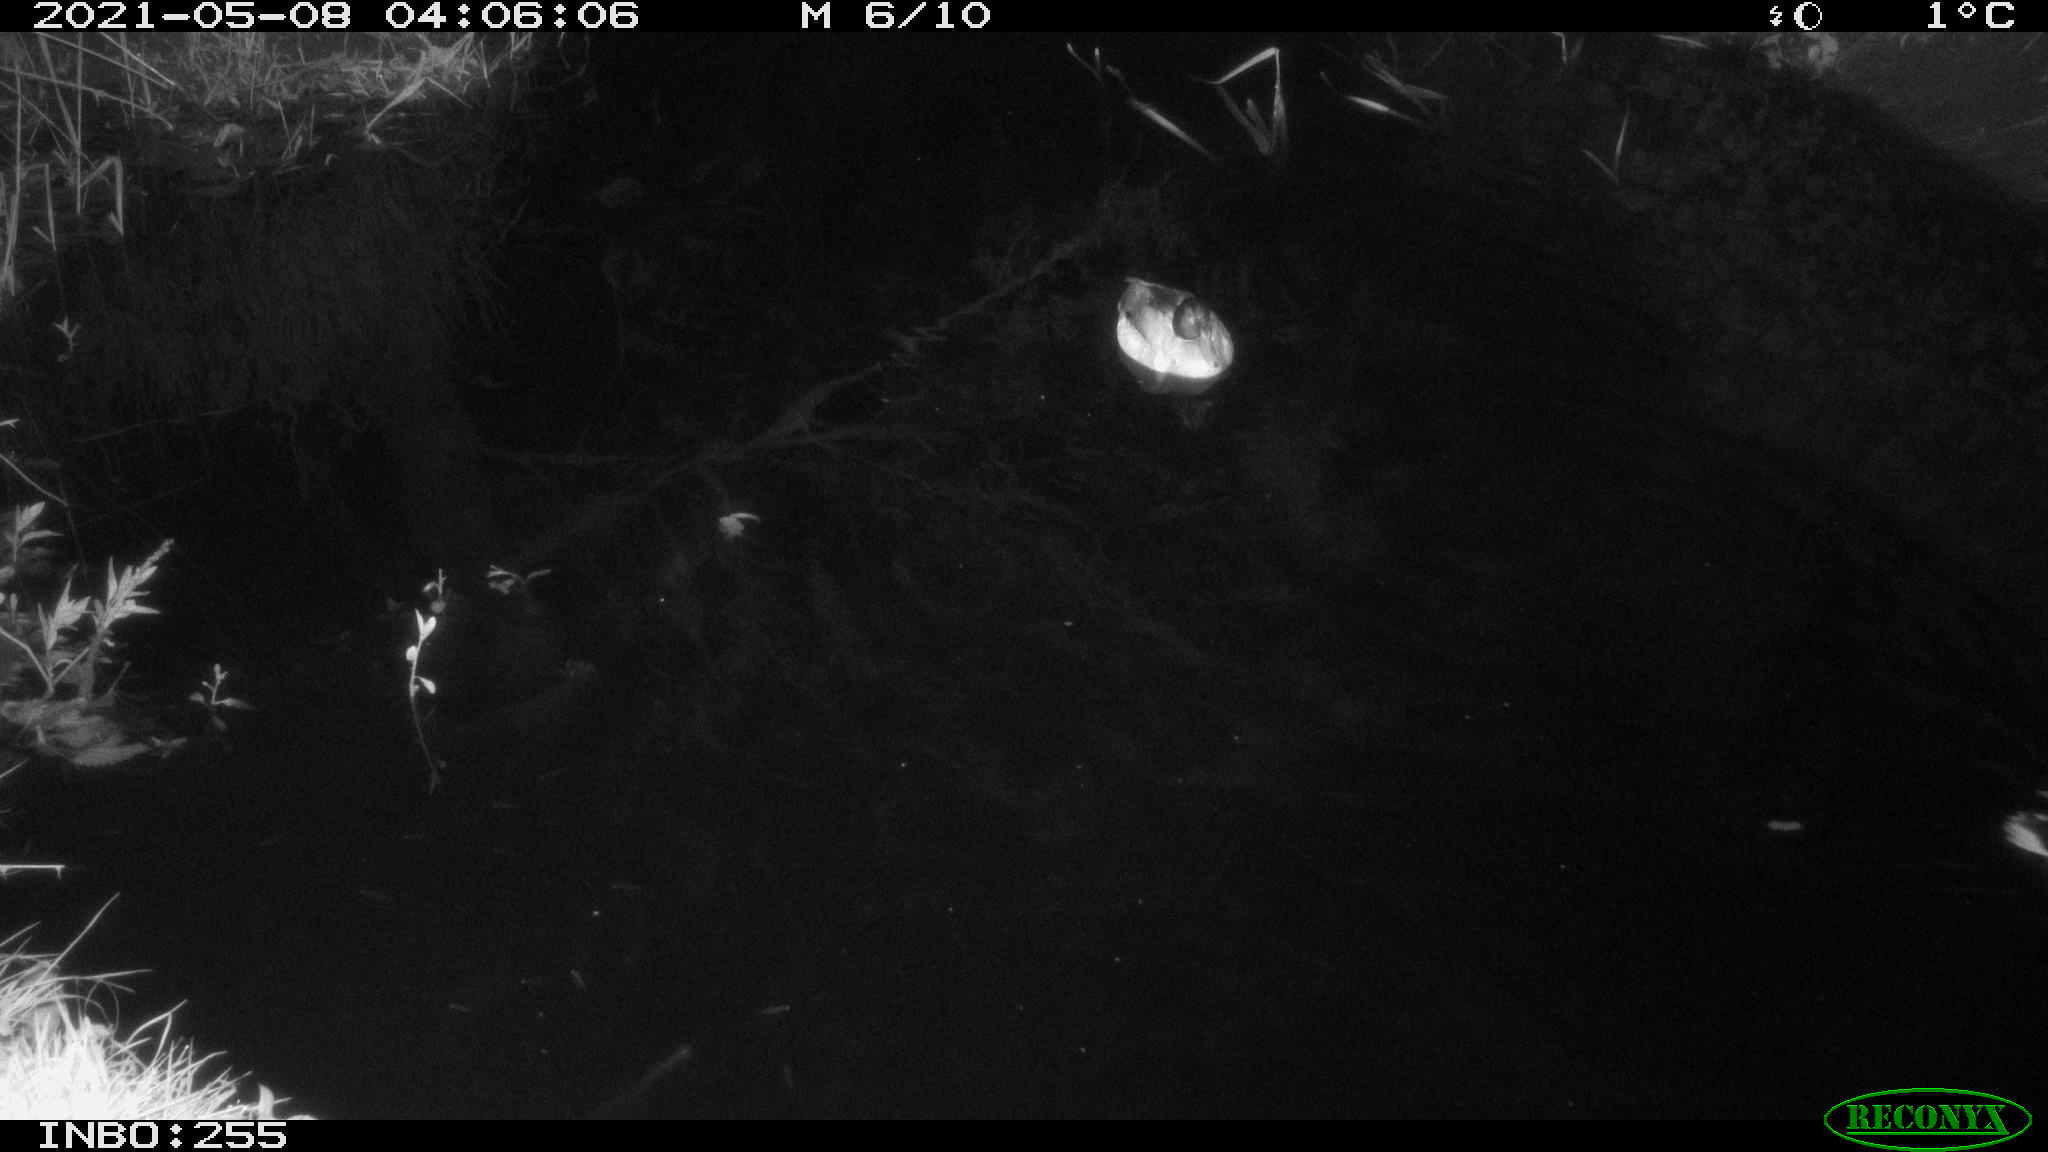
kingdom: Animalia
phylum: Chordata
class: Aves
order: Anseriformes
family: Anatidae
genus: Anas
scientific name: Anas platyrhynchos
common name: Mallard
